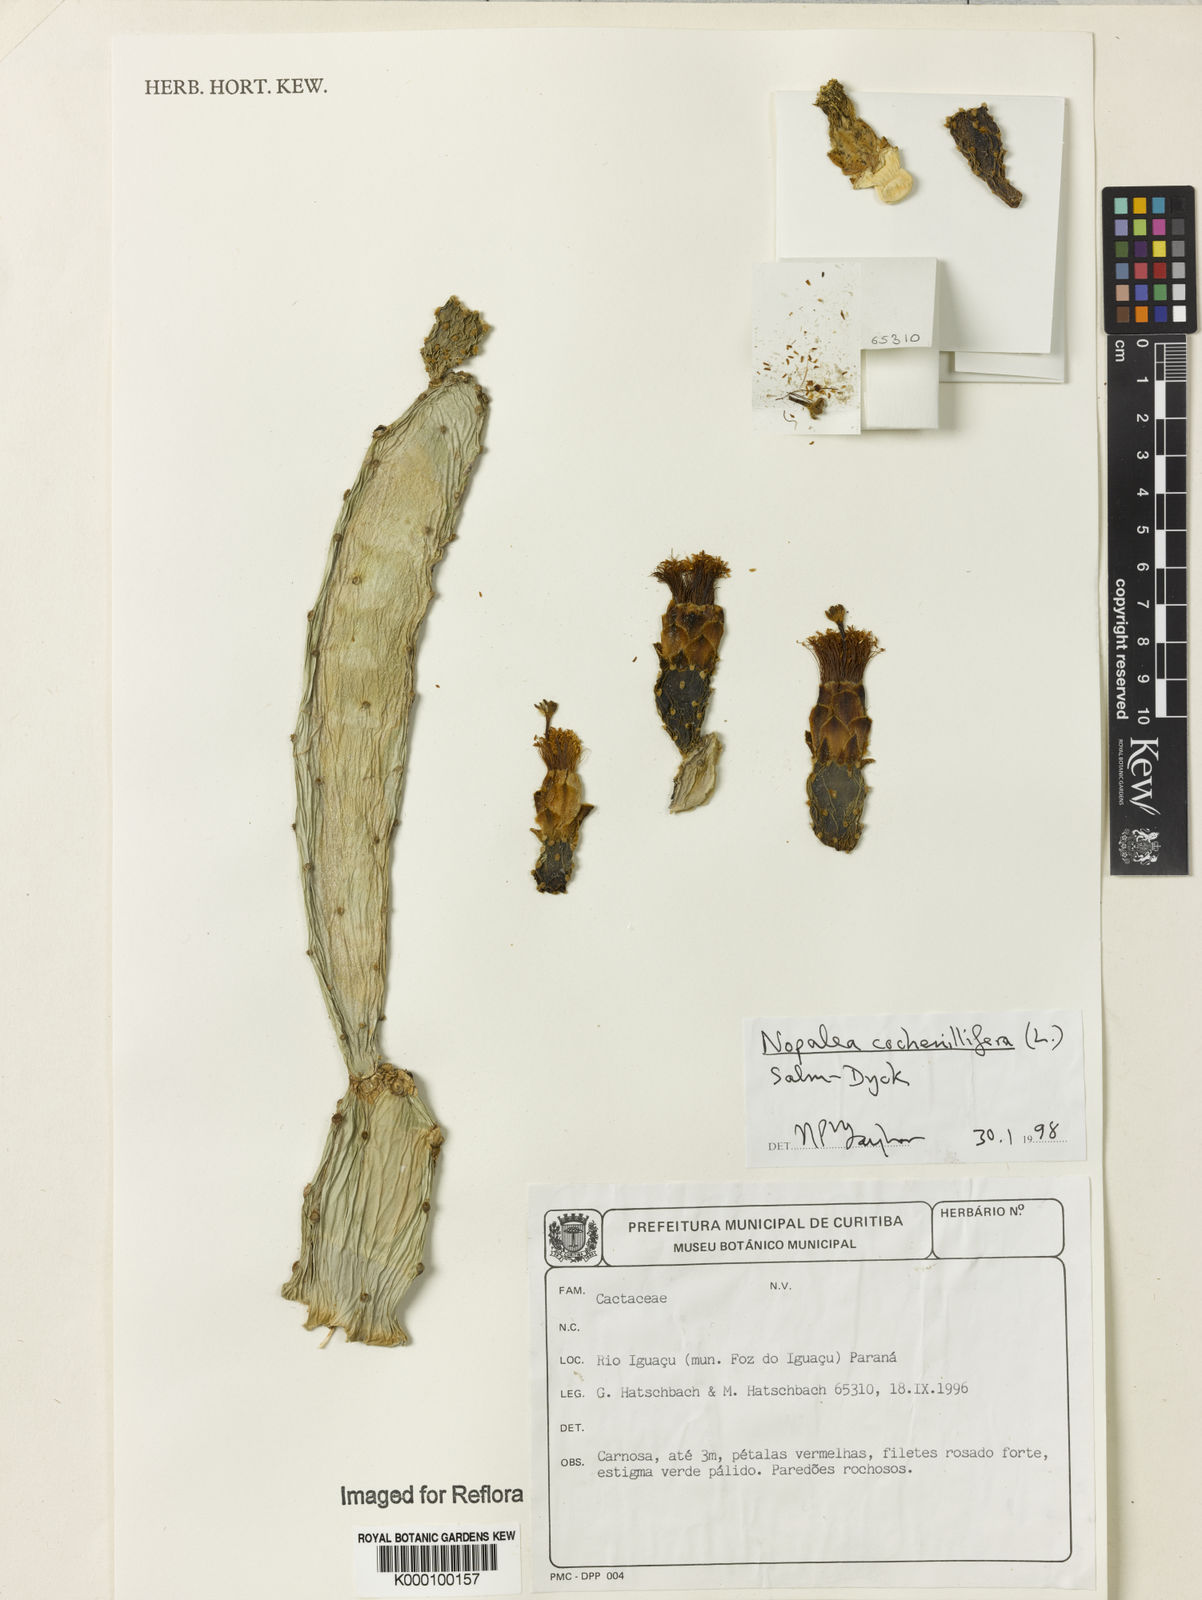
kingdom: Plantae
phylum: Tracheophyta
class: Magnoliopsida
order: Caryophyllales
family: Cactaceae
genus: Opuntia
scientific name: Opuntia cochenillifera
